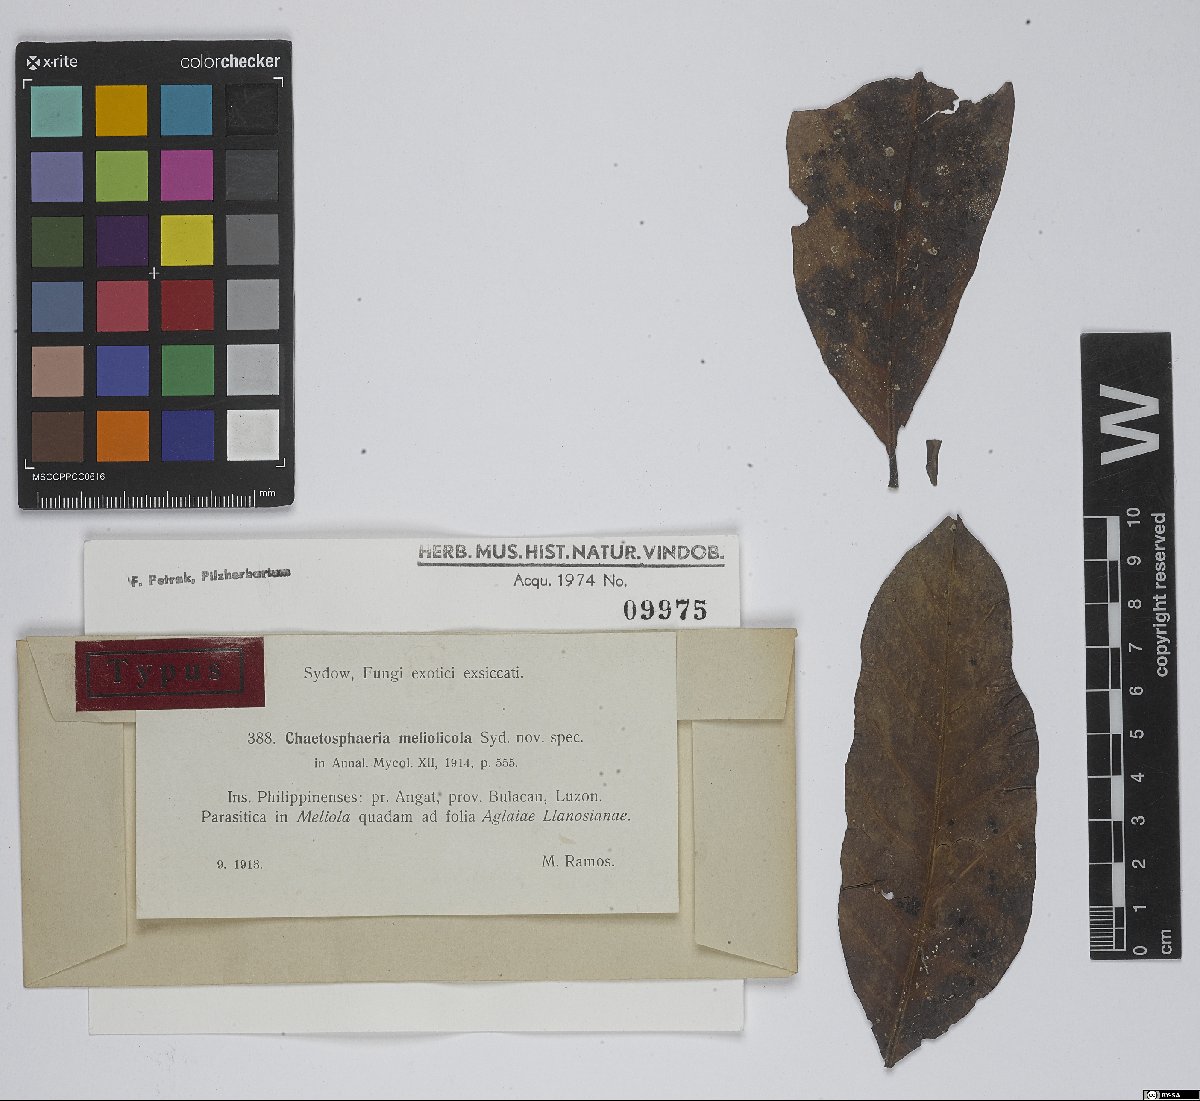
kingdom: Fungi
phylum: Ascomycota
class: Sordariomycetes
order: Chaetosphaeriales
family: Chaetosphaeriaceae
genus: Chaetosphaeria
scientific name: Chaetosphaeria meliolicola
